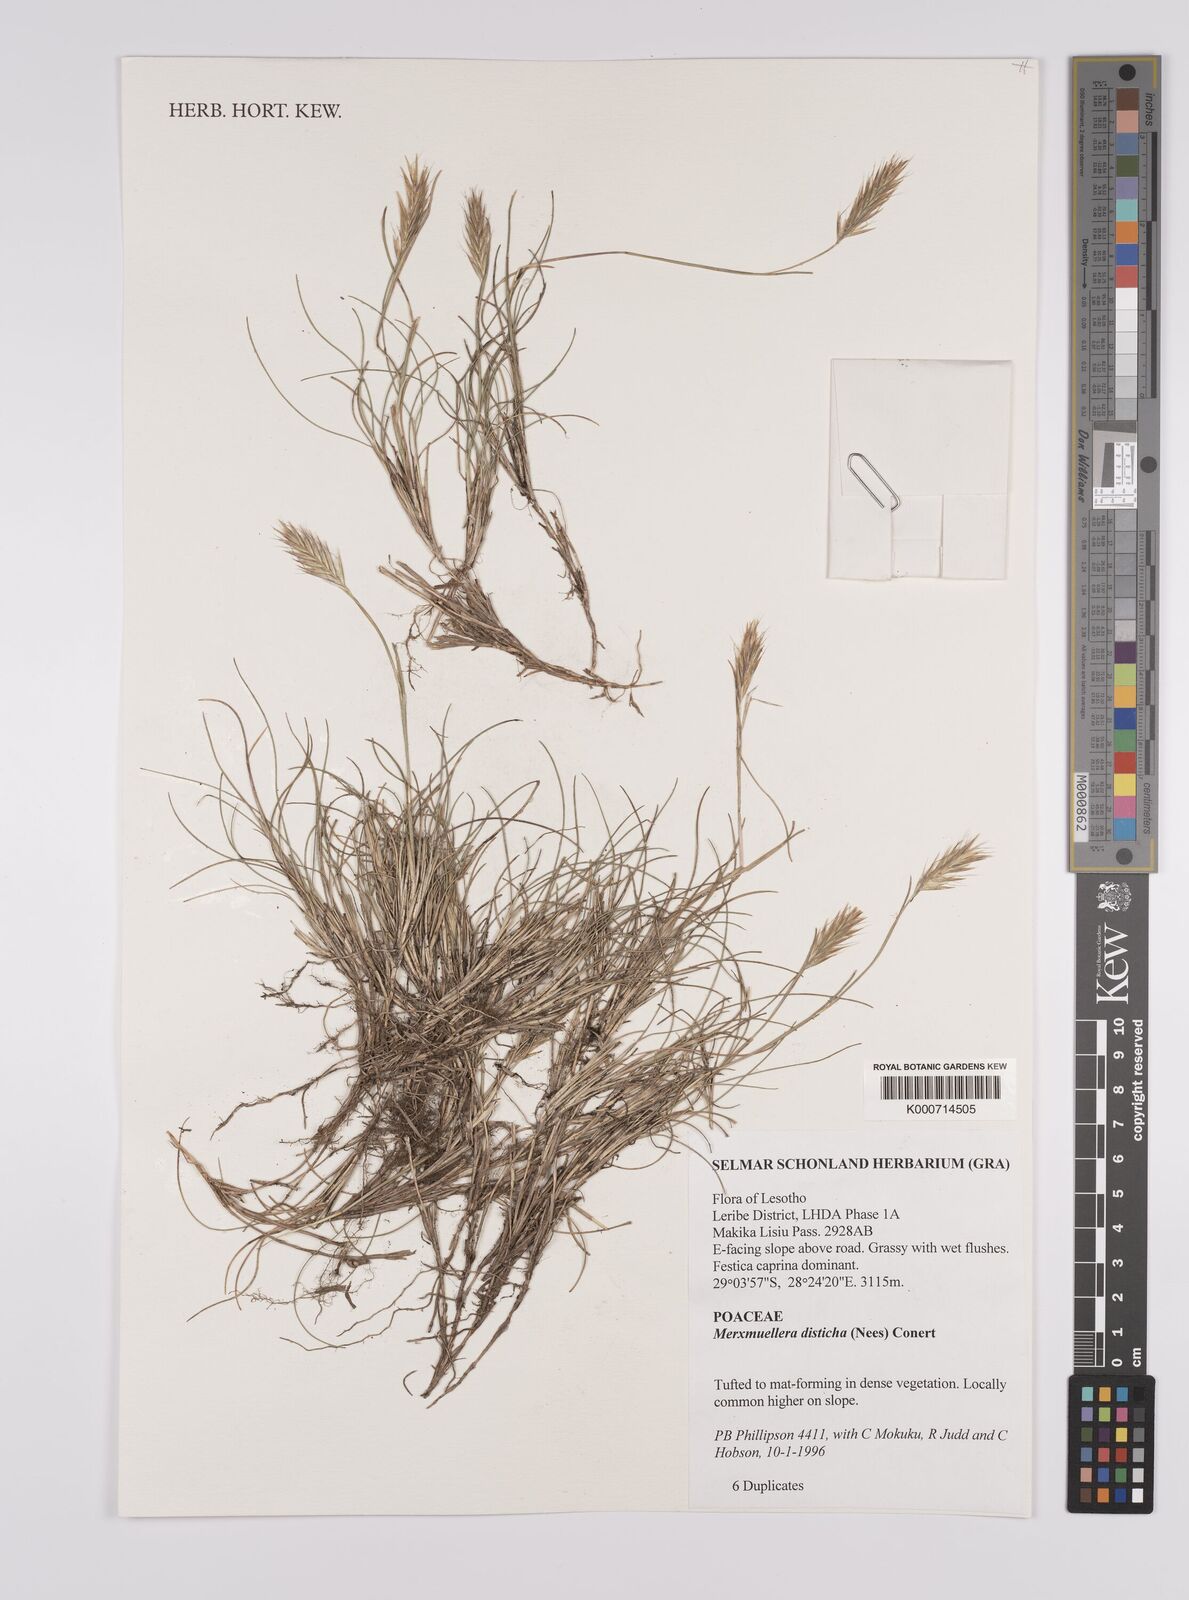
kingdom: Plantae
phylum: Tracheophyta
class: Liliopsida
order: Poales
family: Poaceae
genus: Tenaxia
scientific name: Tenaxia disticha
